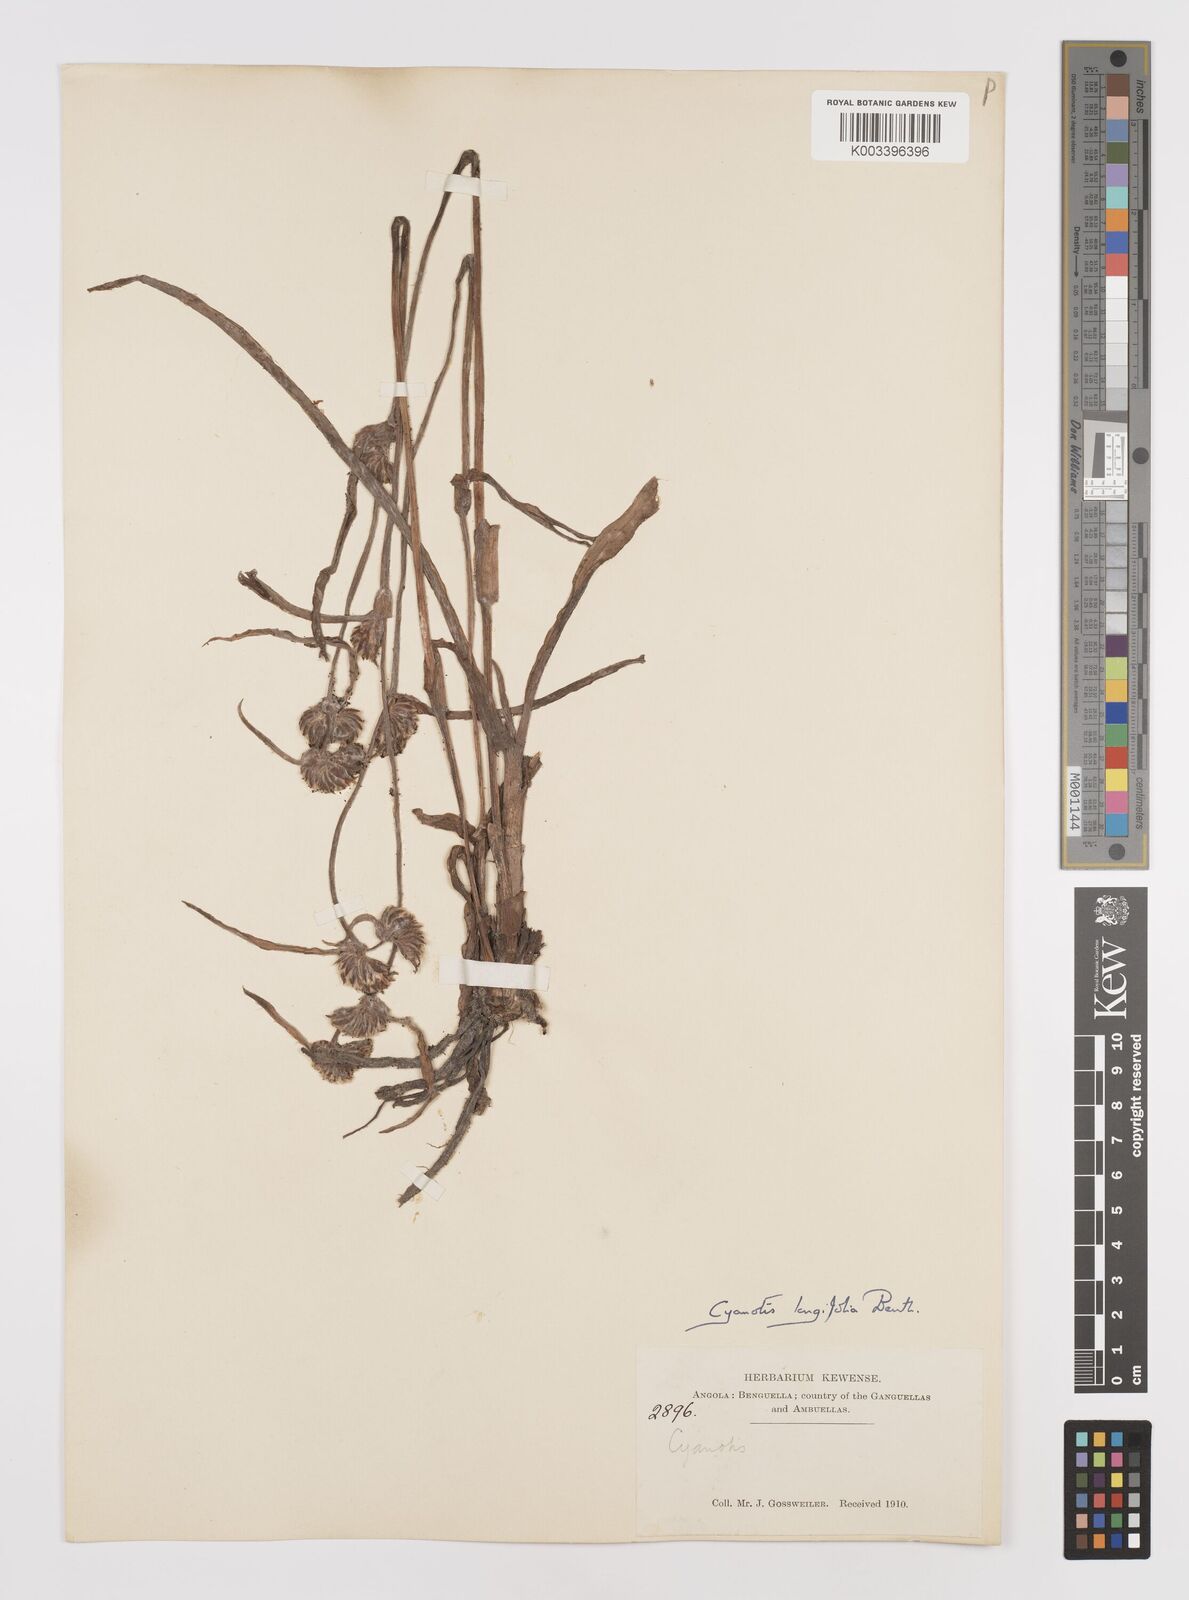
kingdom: Plantae
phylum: Tracheophyta
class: Liliopsida
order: Commelinales
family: Commelinaceae
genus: Cyanotis
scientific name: Cyanotis longifolia
